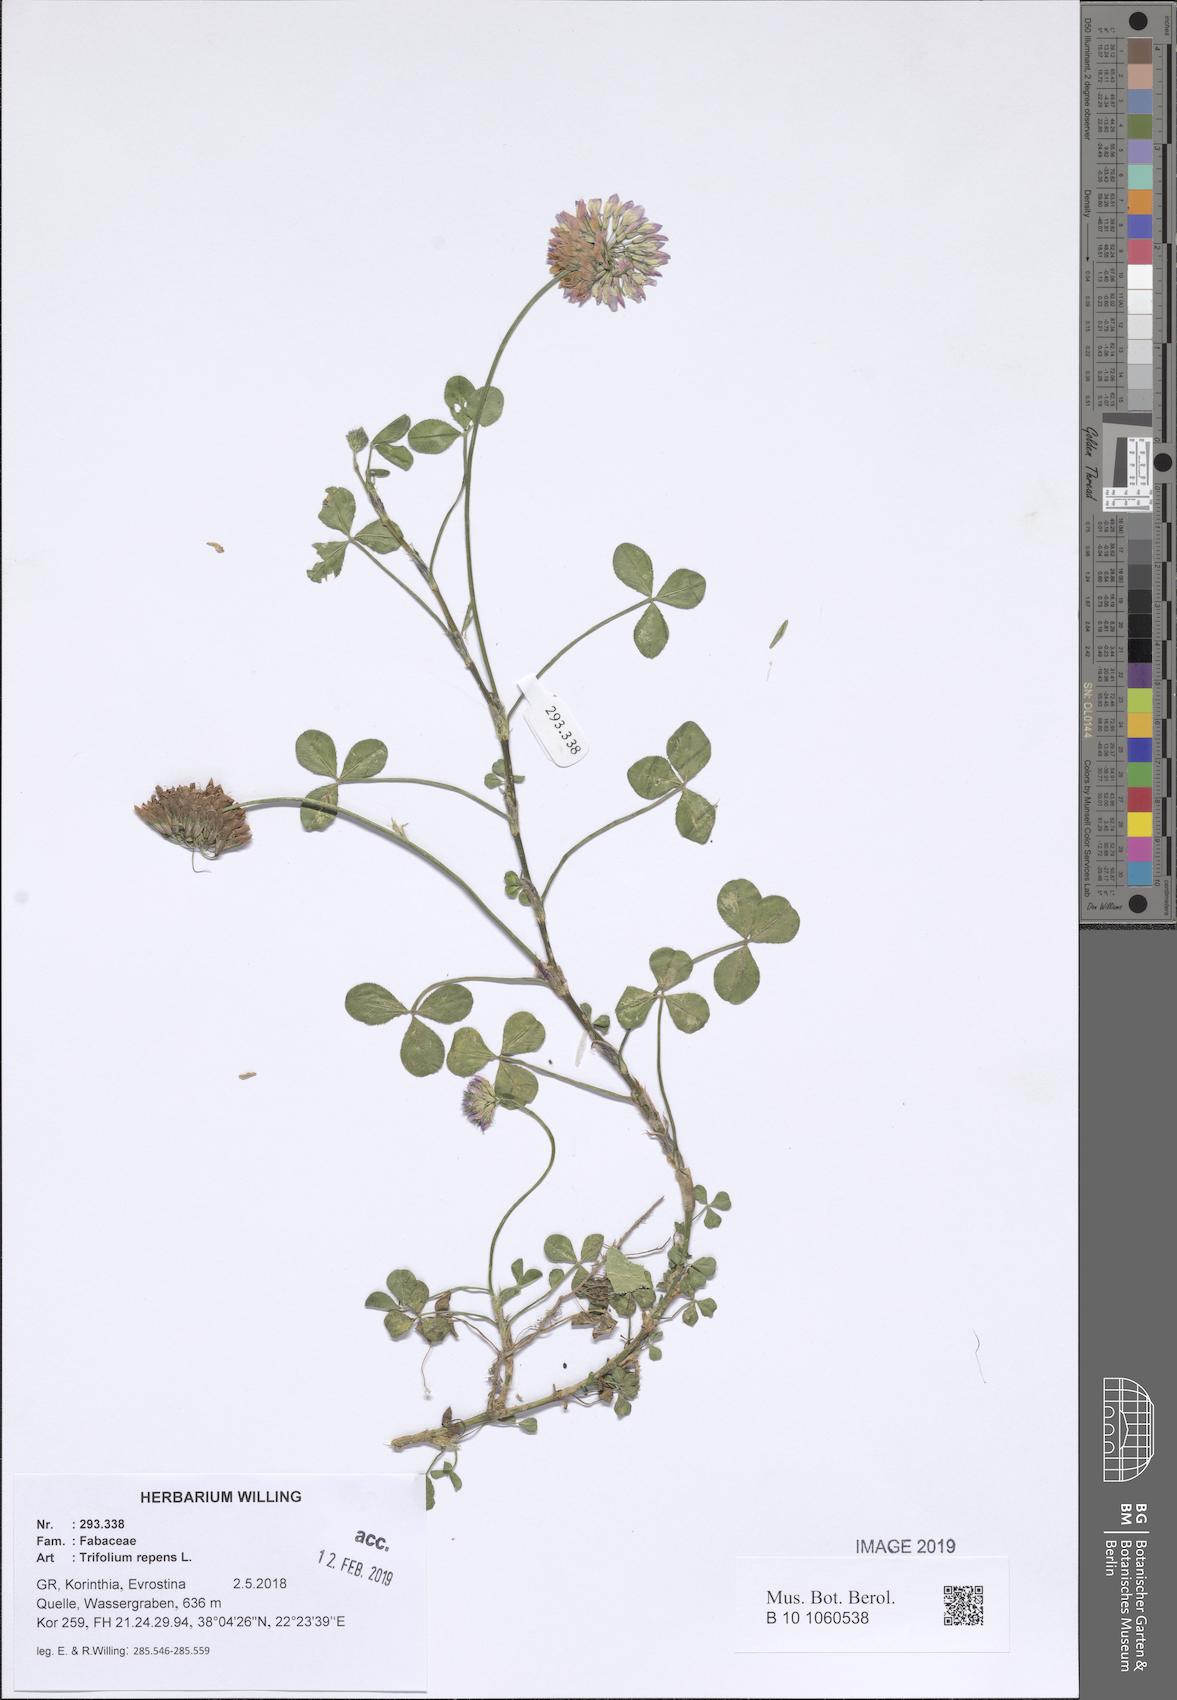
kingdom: Plantae
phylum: Tracheophyta
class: Magnoliopsida
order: Fabales
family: Fabaceae
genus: Trifolium
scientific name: Trifolium repens
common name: White clover
